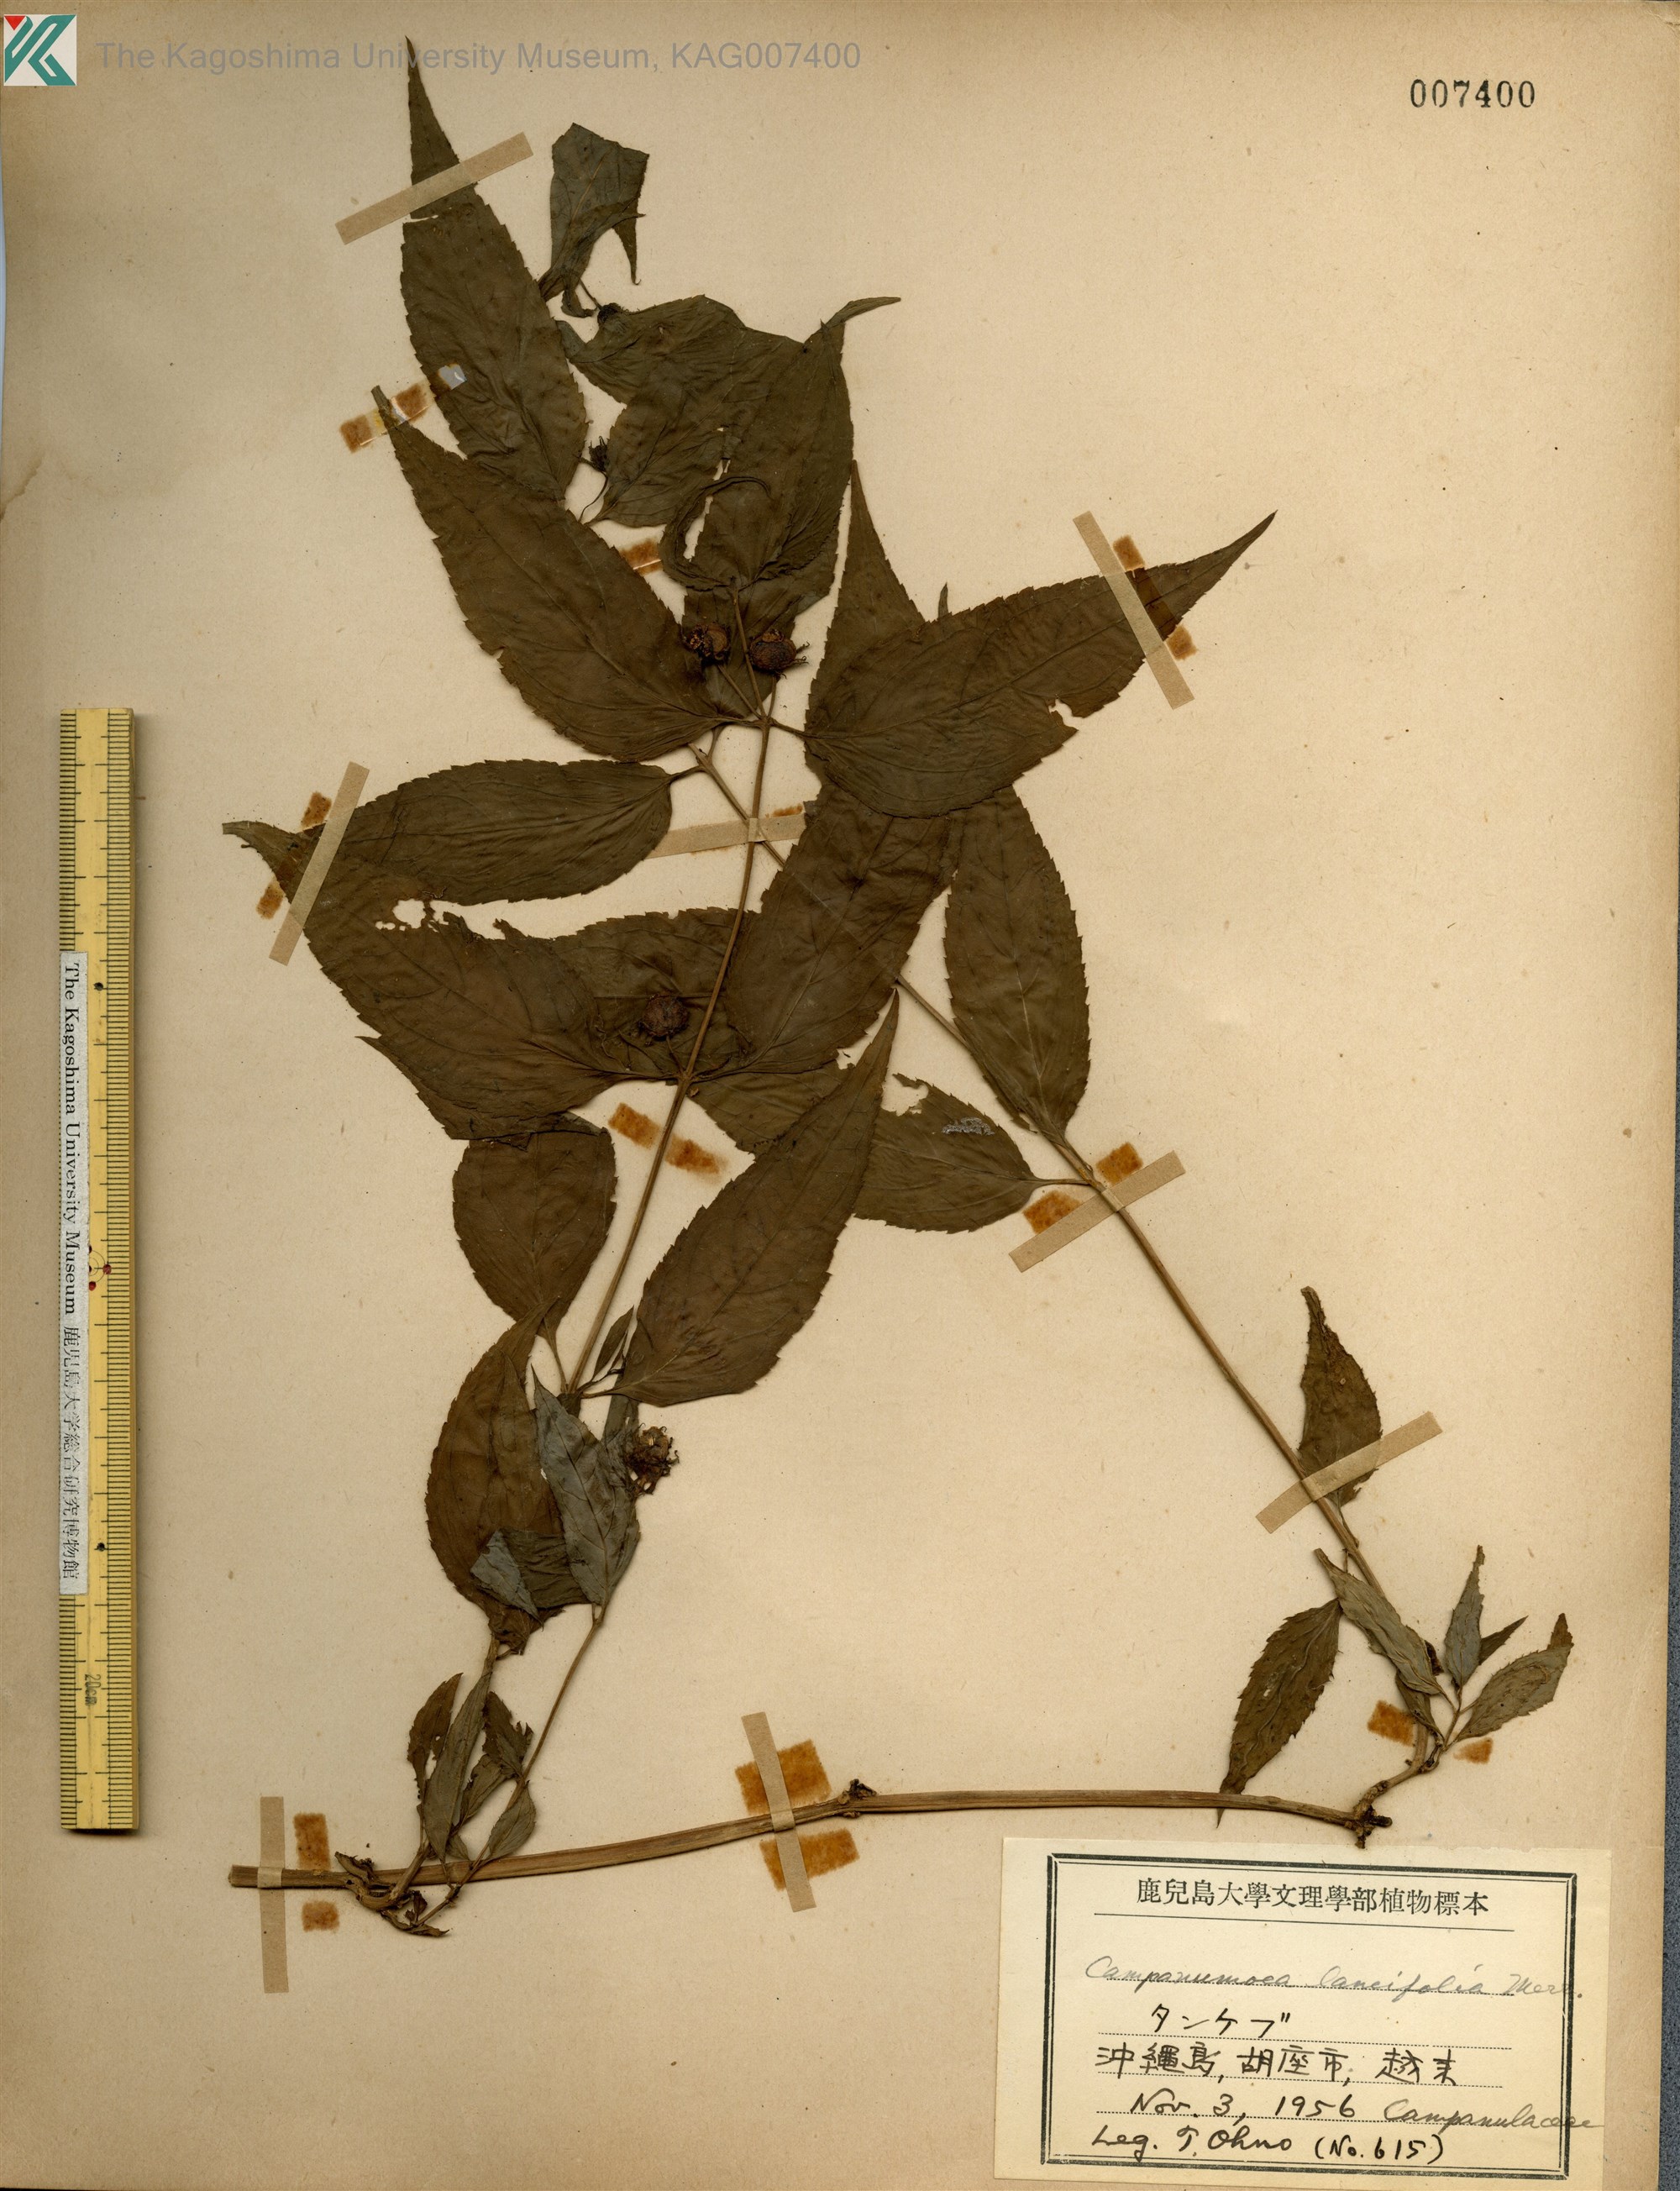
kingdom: Plantae
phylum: Tracheophyta
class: Magnoliopsida
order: Asterales
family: Campanulaceae
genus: Cyclocodon
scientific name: Cyclocodon lancifolius
